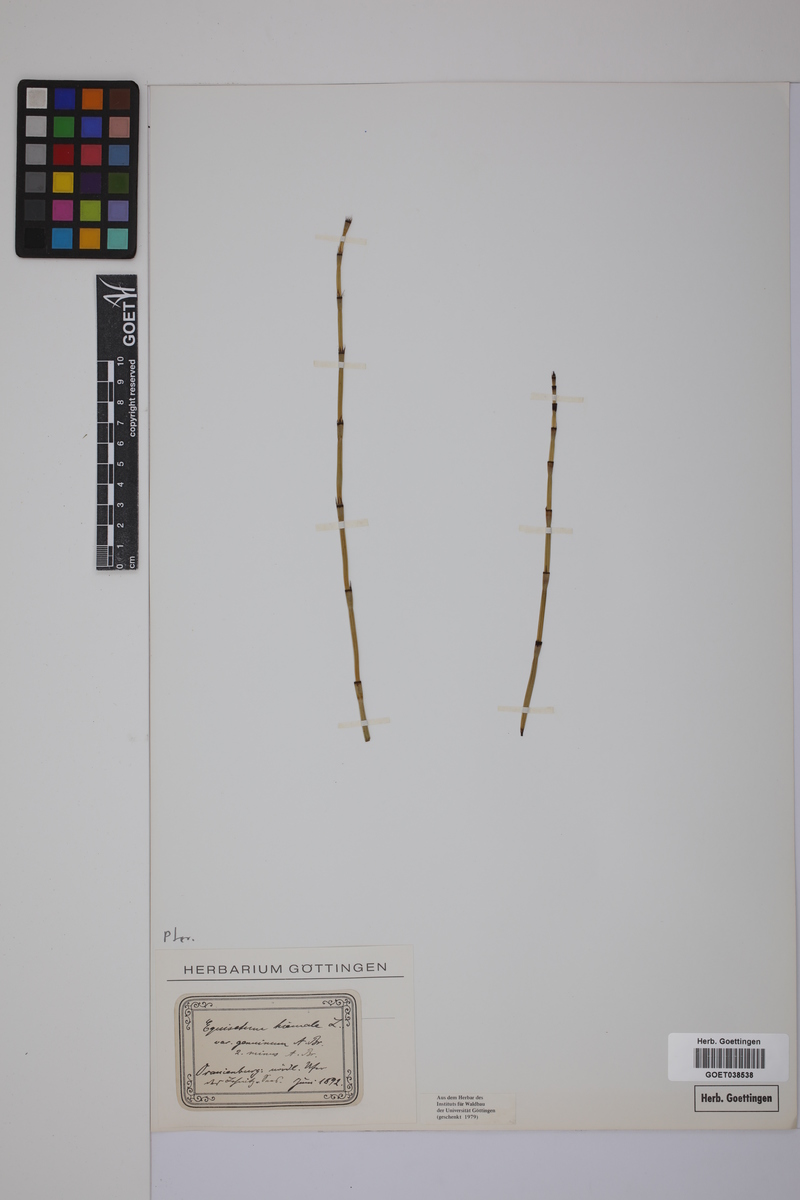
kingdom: Plantae
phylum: Tracheophyta
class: Polypodiopsida
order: Equisetales
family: Equisetaceae
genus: Equisetum
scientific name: Equisetum hyemale
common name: Rough horsetail
